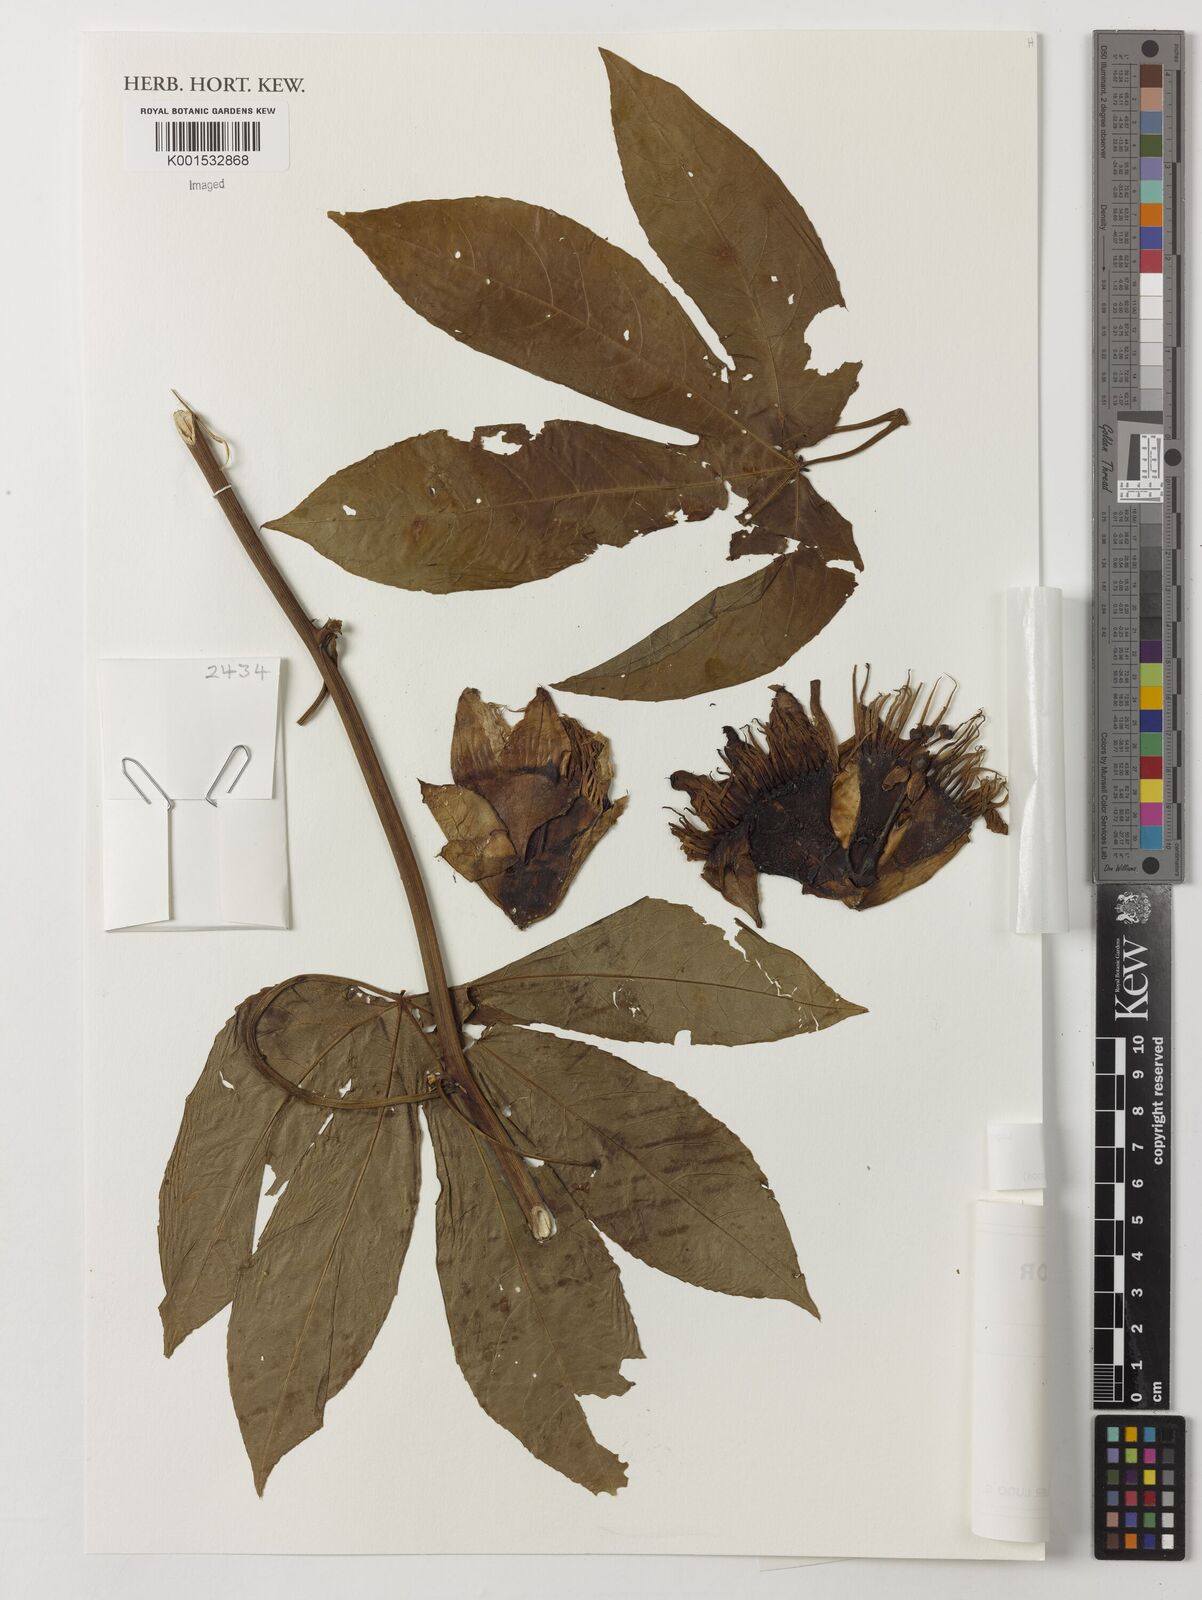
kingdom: Plantae
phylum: Tracheophyta
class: Magnoliopsida
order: Malpighiales
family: Passifloraceae
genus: Passiflora
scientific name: Passiflora serratodigitata
